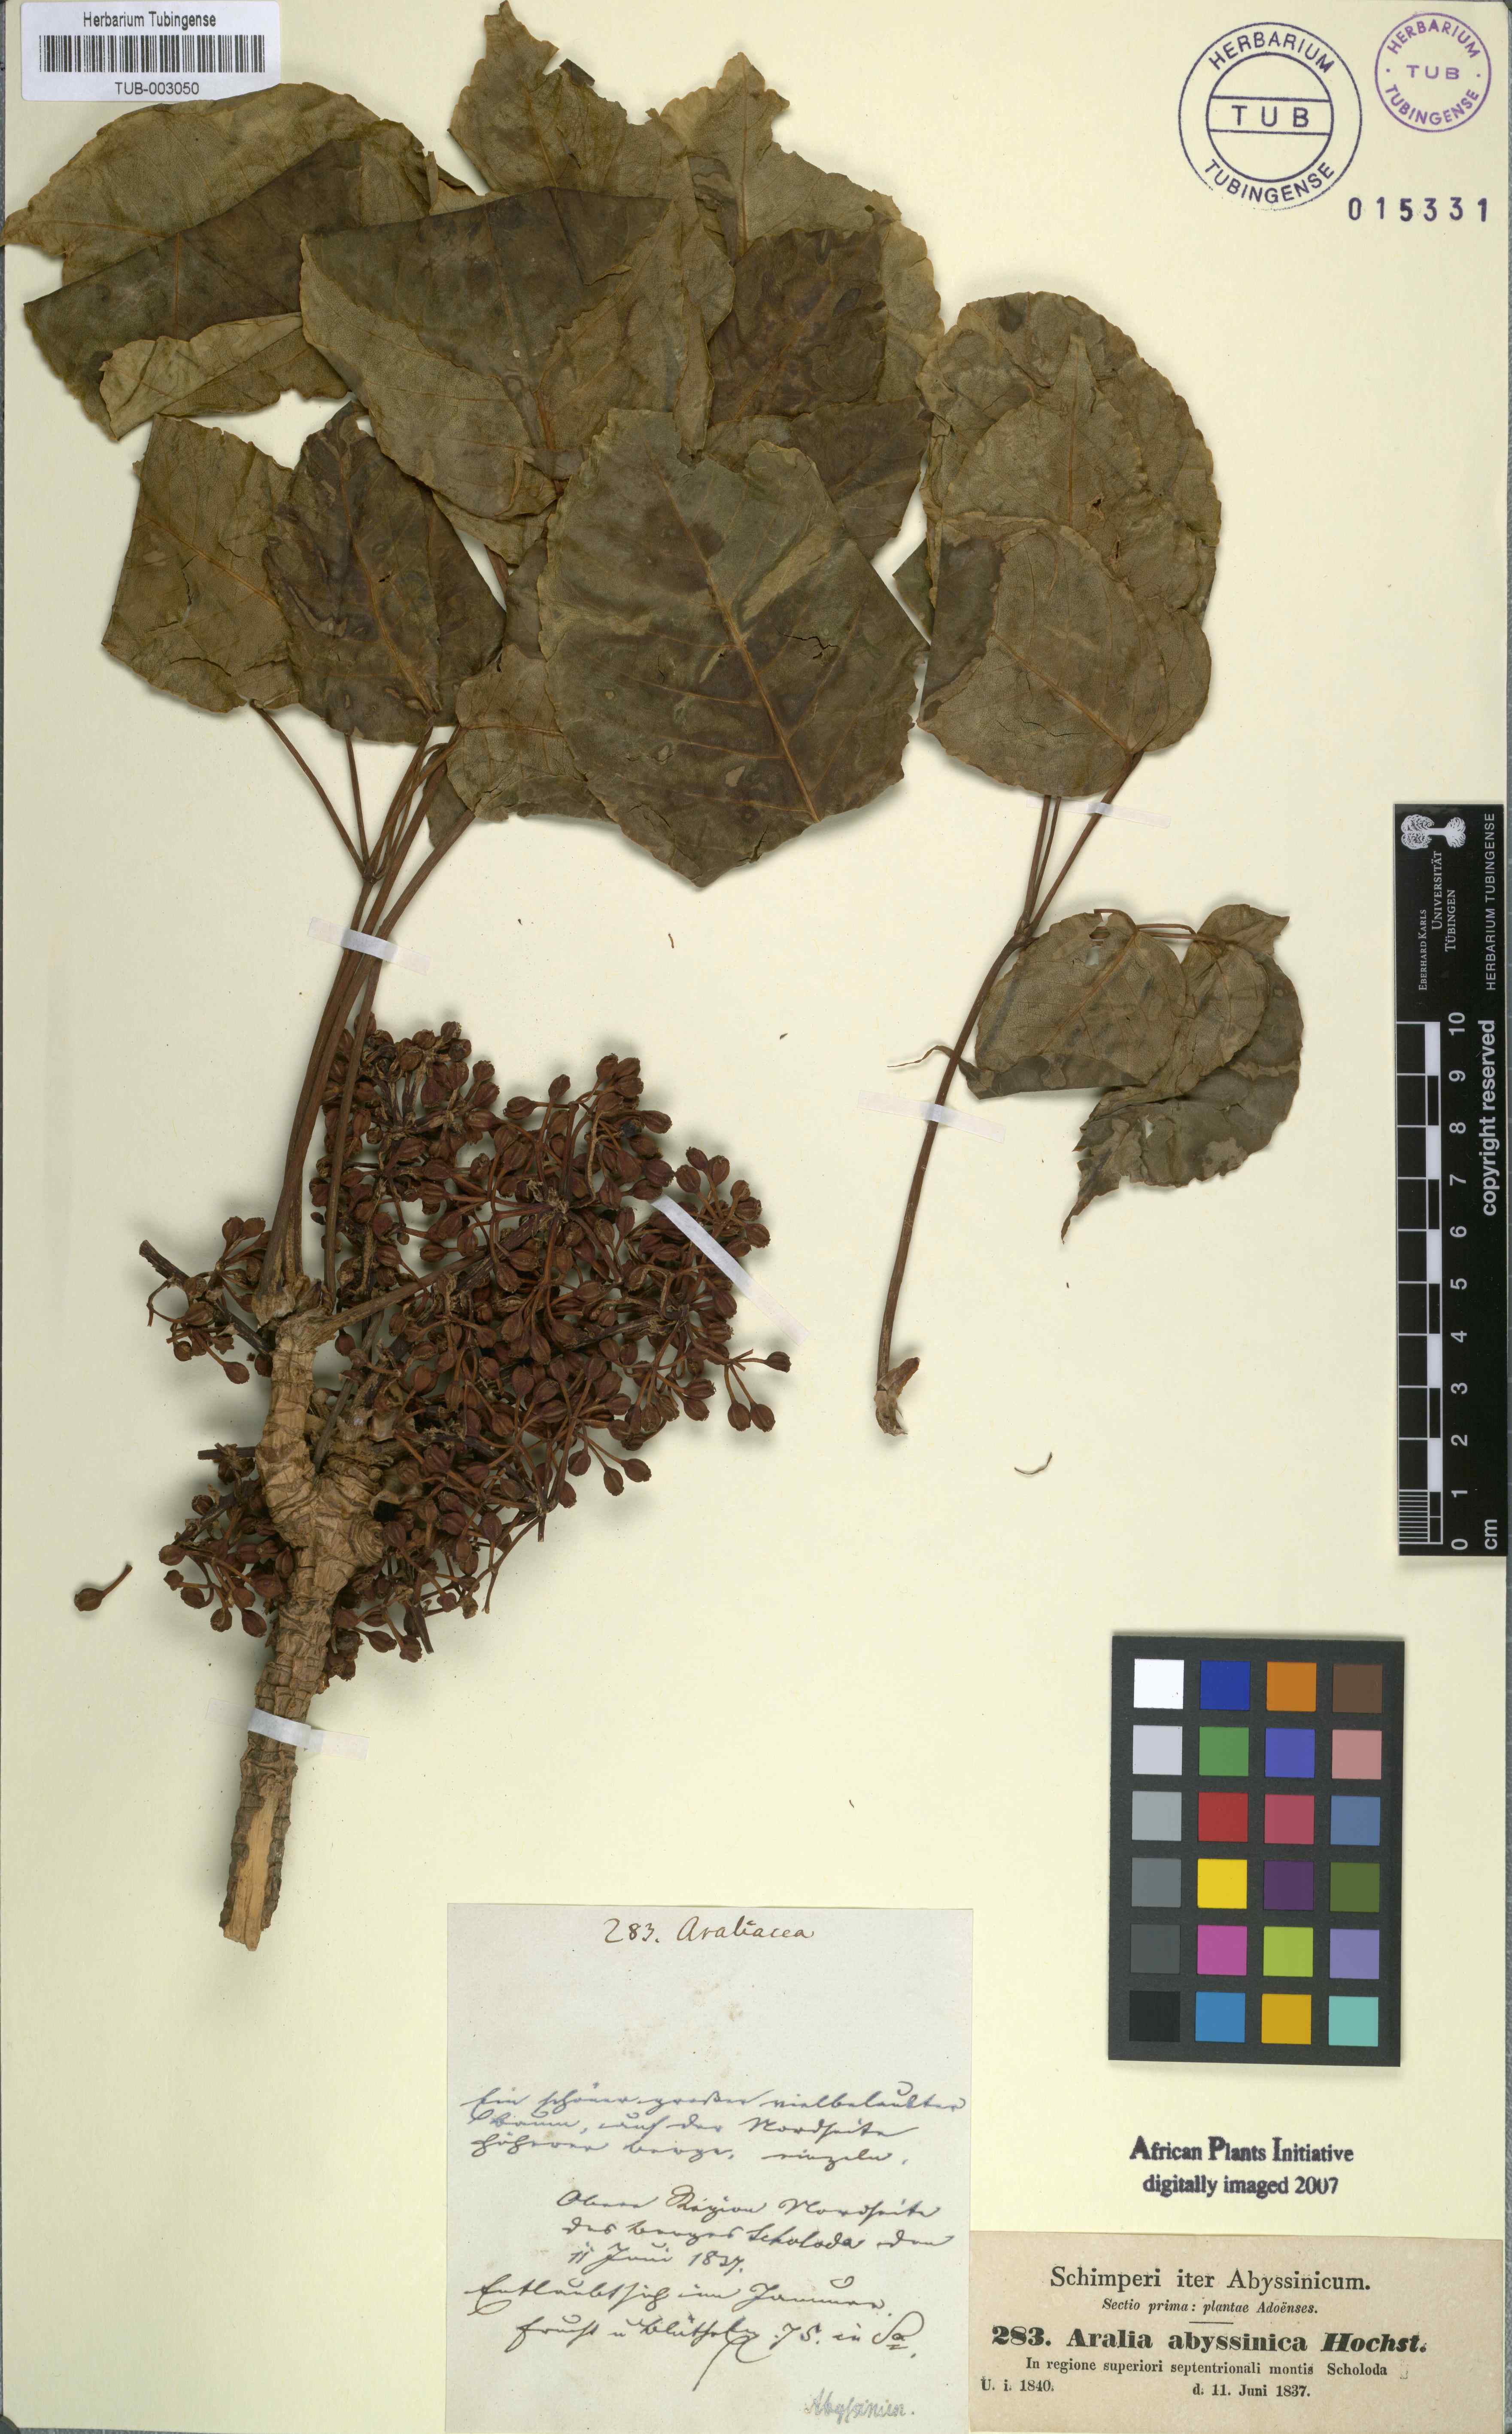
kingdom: Plantae
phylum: Tracheophyta
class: Magnoliopsida
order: Apiales
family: Araliaceae
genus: Astropanax
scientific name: Astropanax abyssinicum
